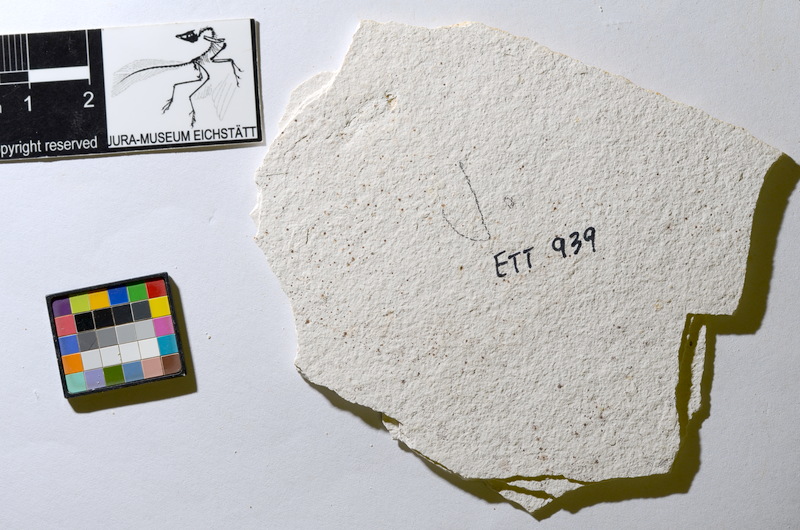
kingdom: Animalia
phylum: Chordata
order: Salmoniformes
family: Orthogonikleithridae
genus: Orthogonikleithrus
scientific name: Orthogonikleithrus hoelli
